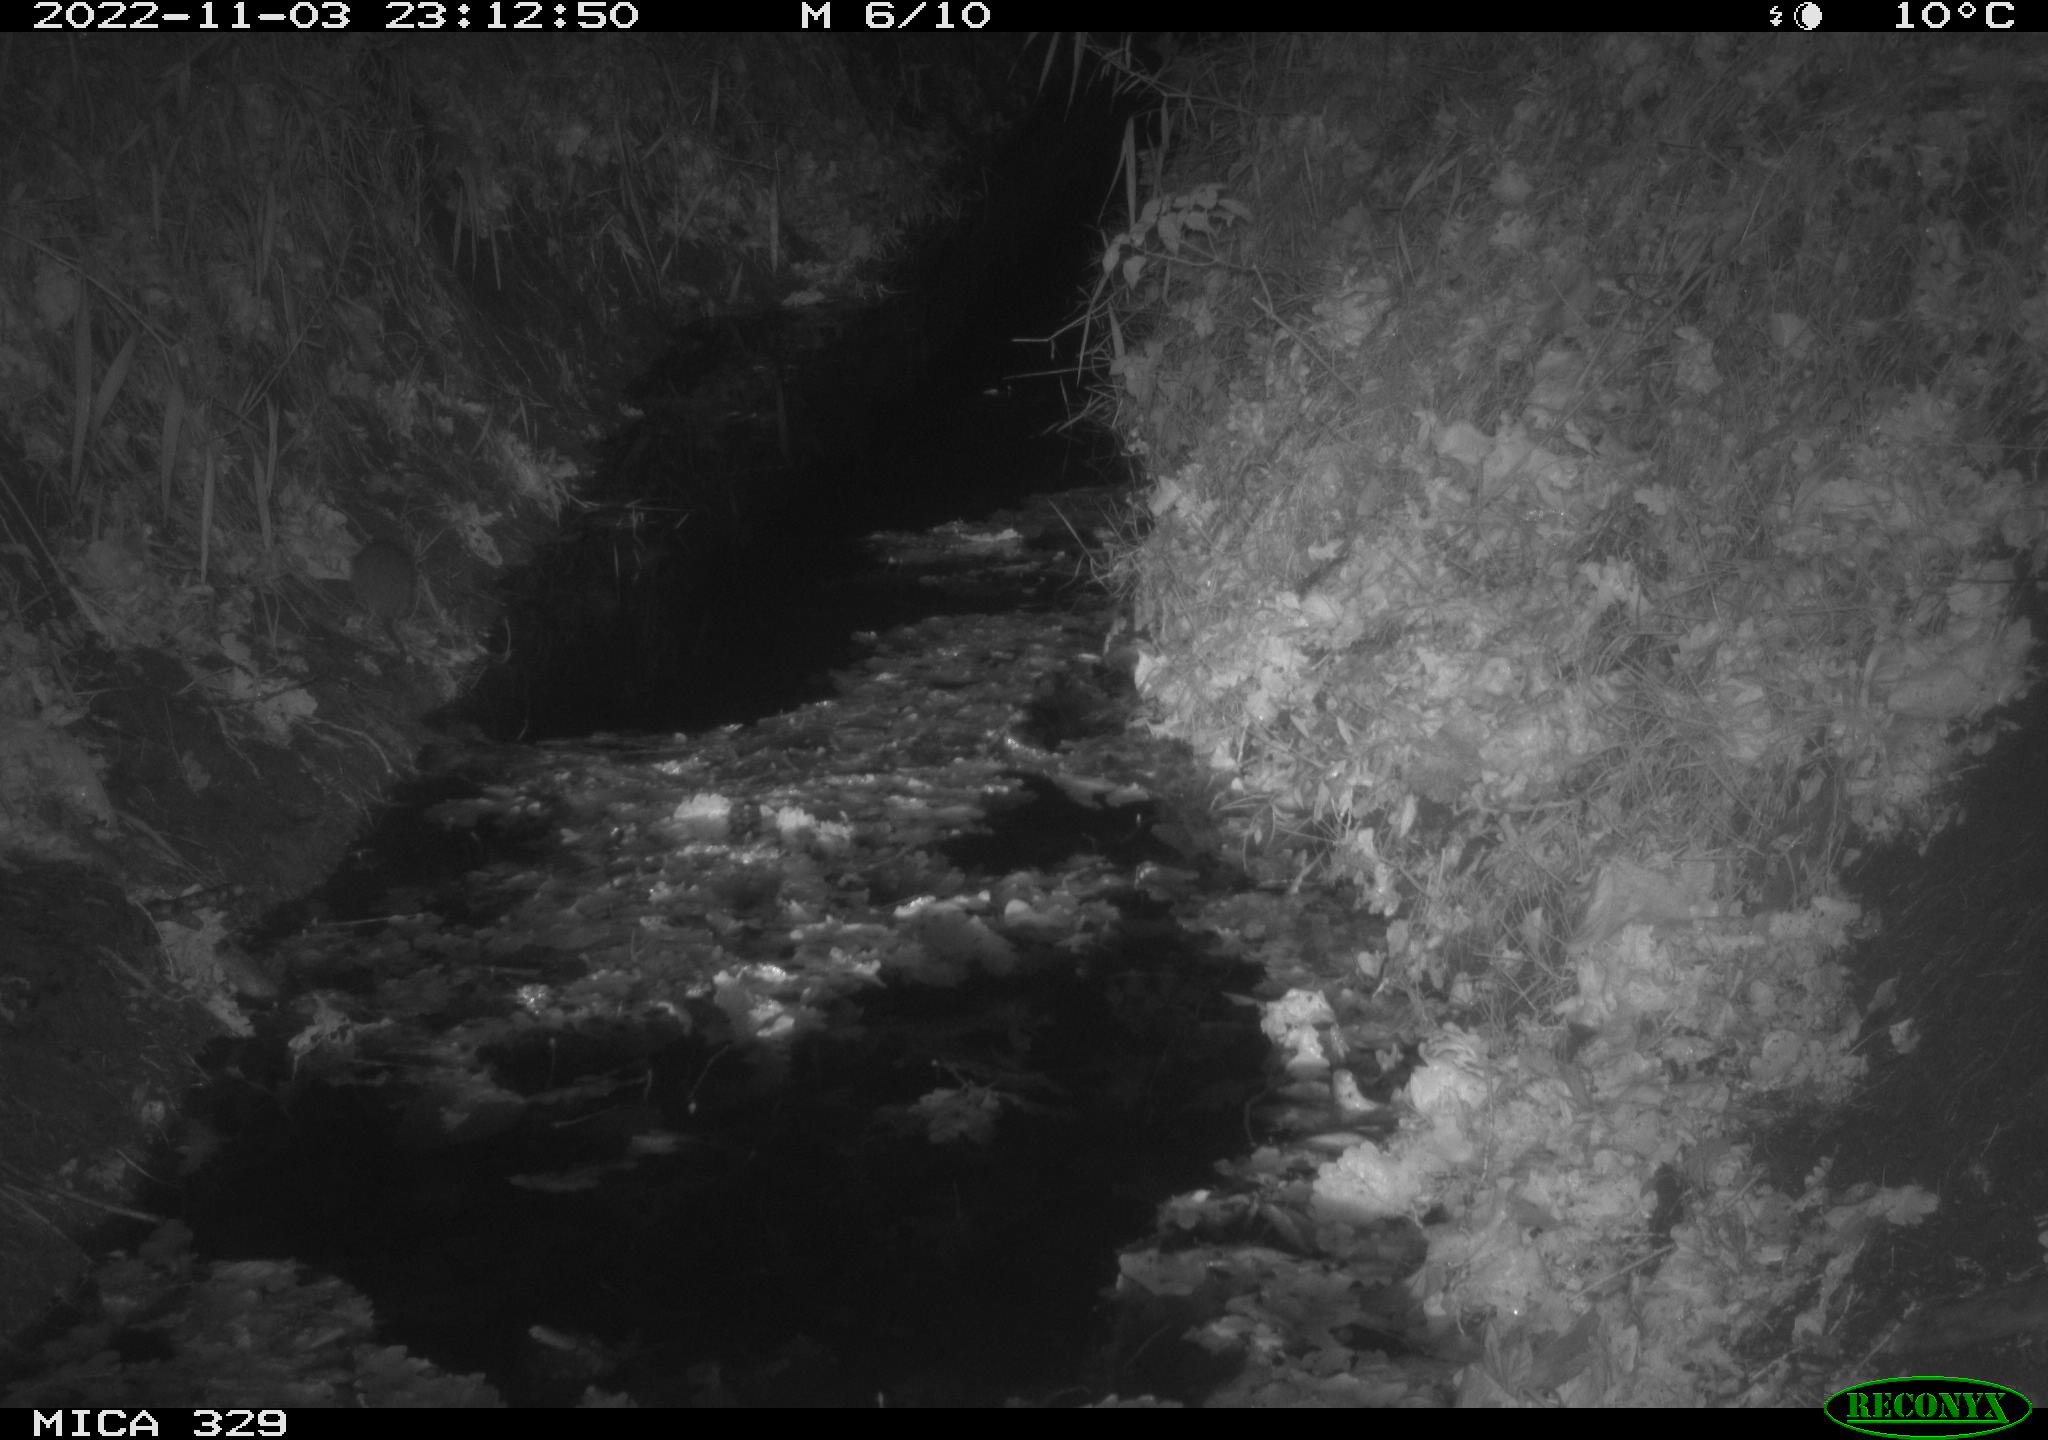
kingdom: Animalia
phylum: Chordata
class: Mammalia
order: Rodentia
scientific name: Rodentia
